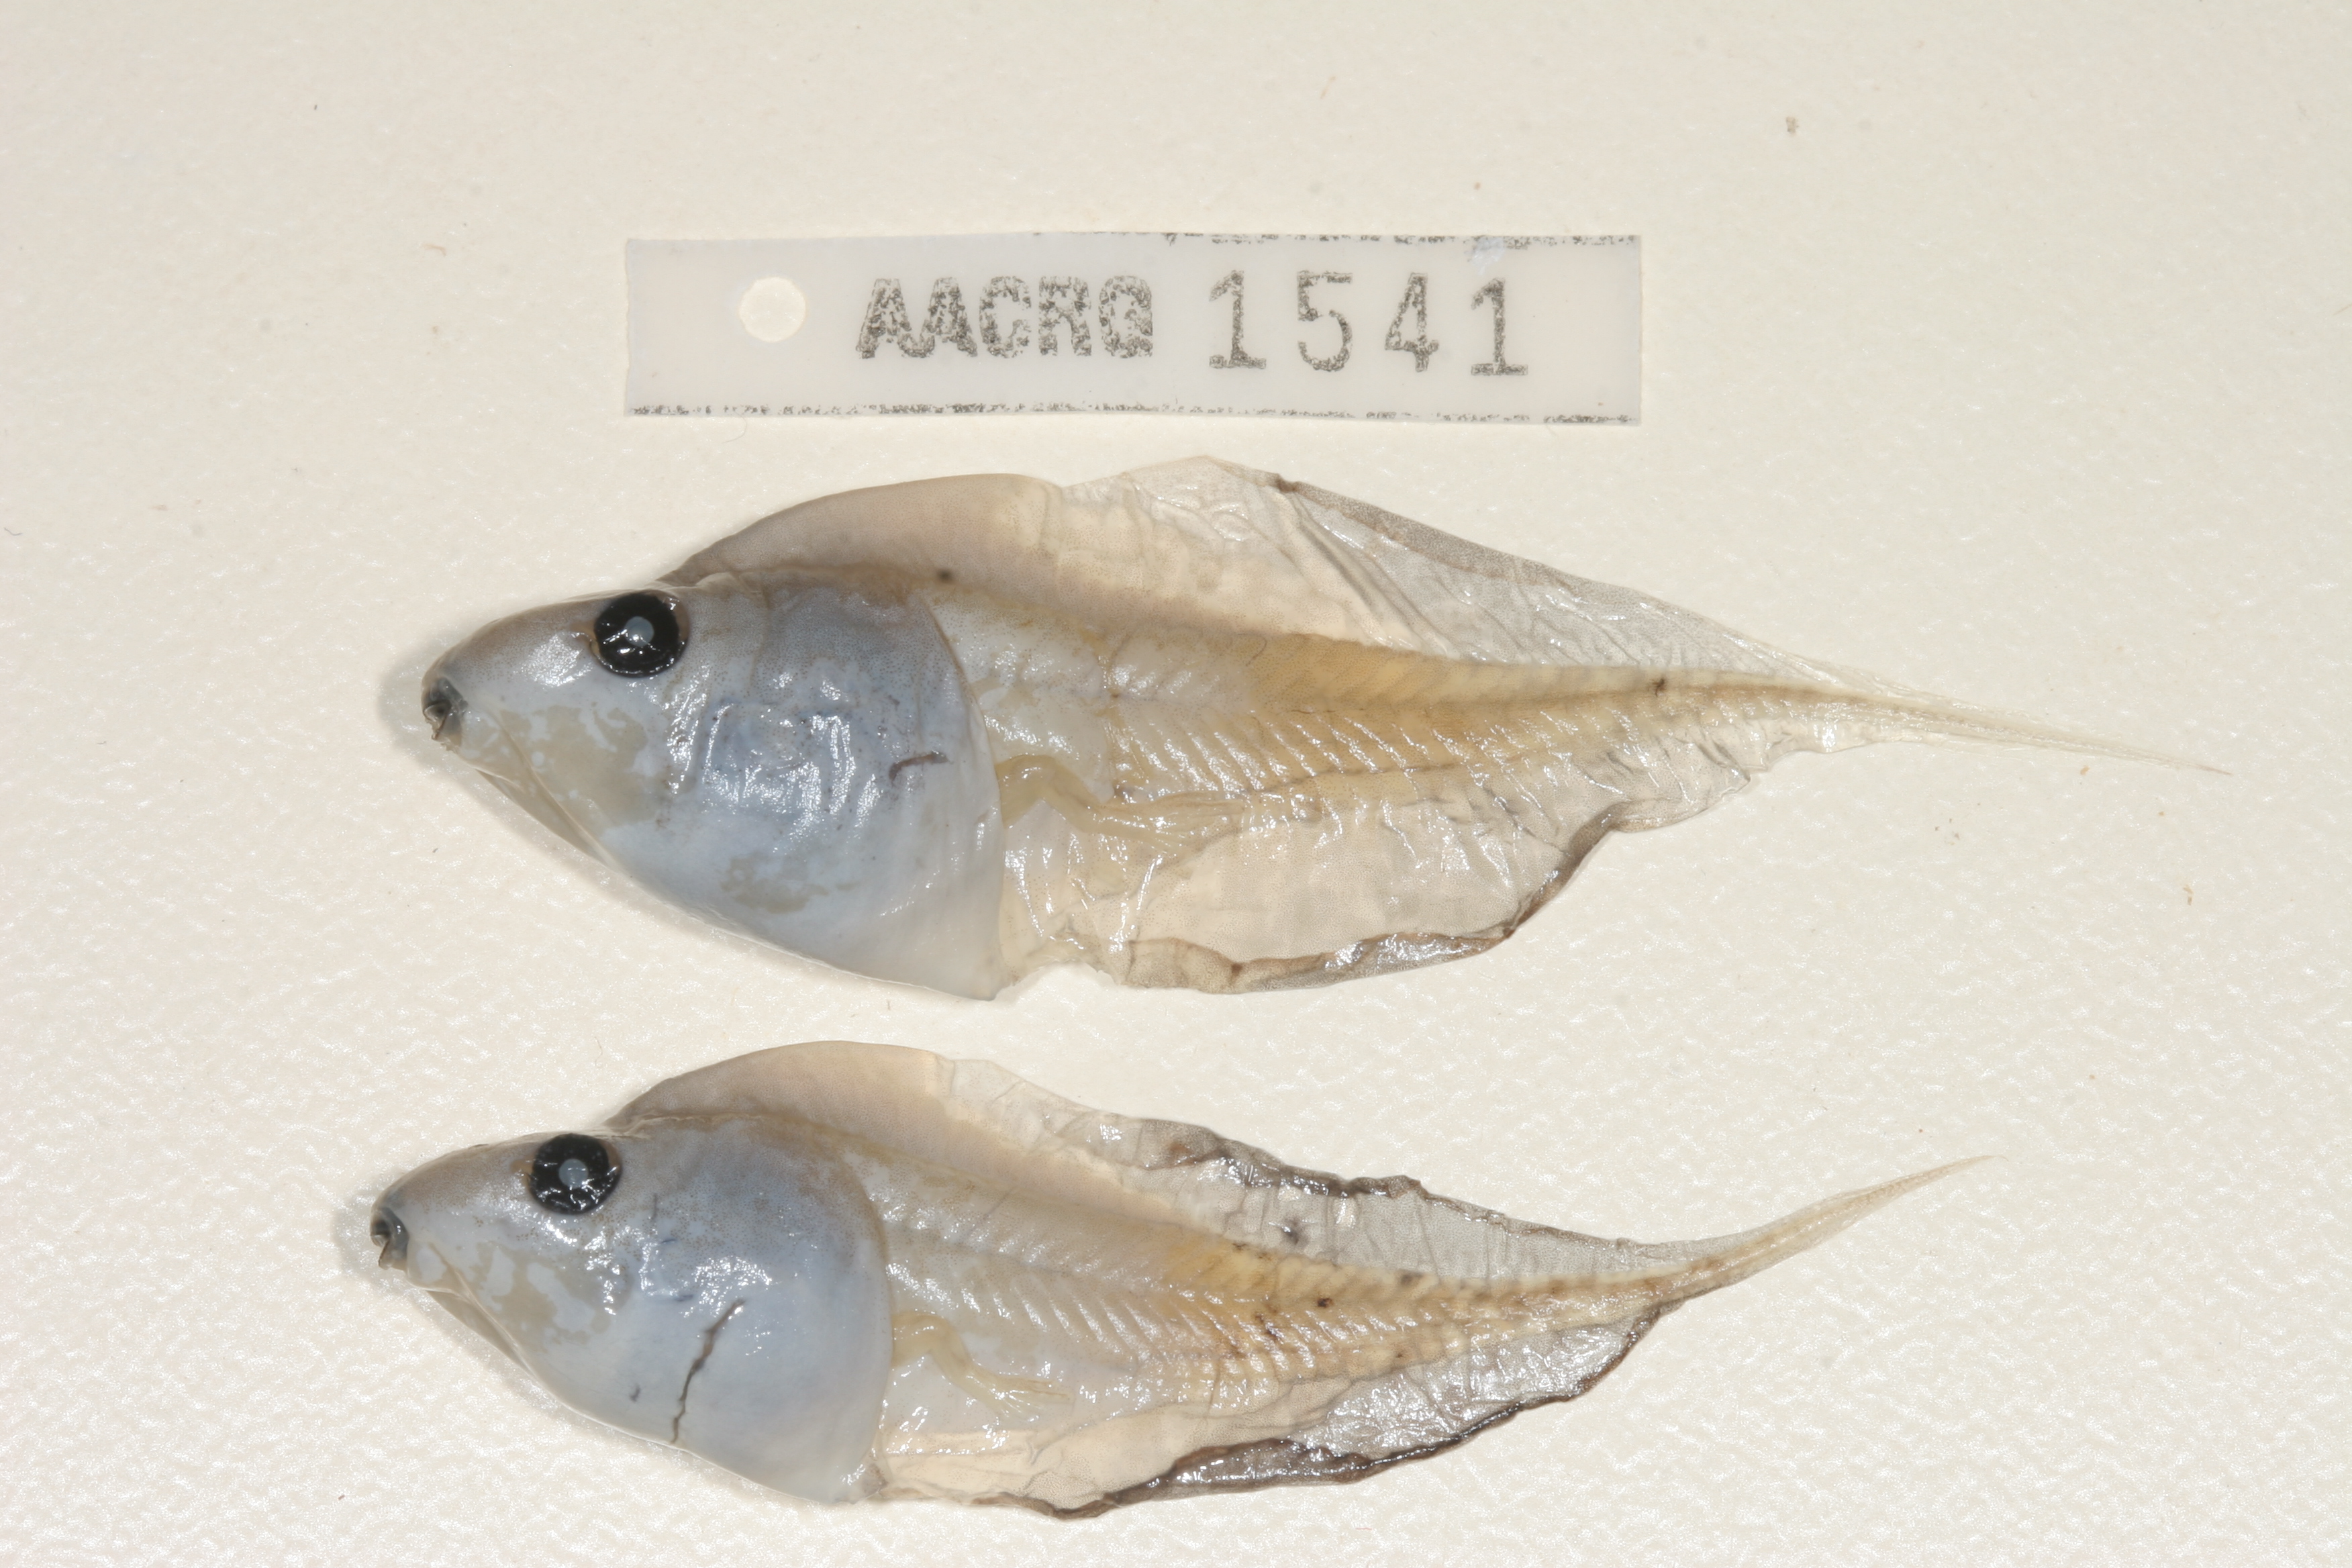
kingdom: Animalia
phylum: Chordata
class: Amphibia
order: Anura
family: Hyperoliidae
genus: Kassina
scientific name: Kassina senegalensis
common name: Senegal land frog
